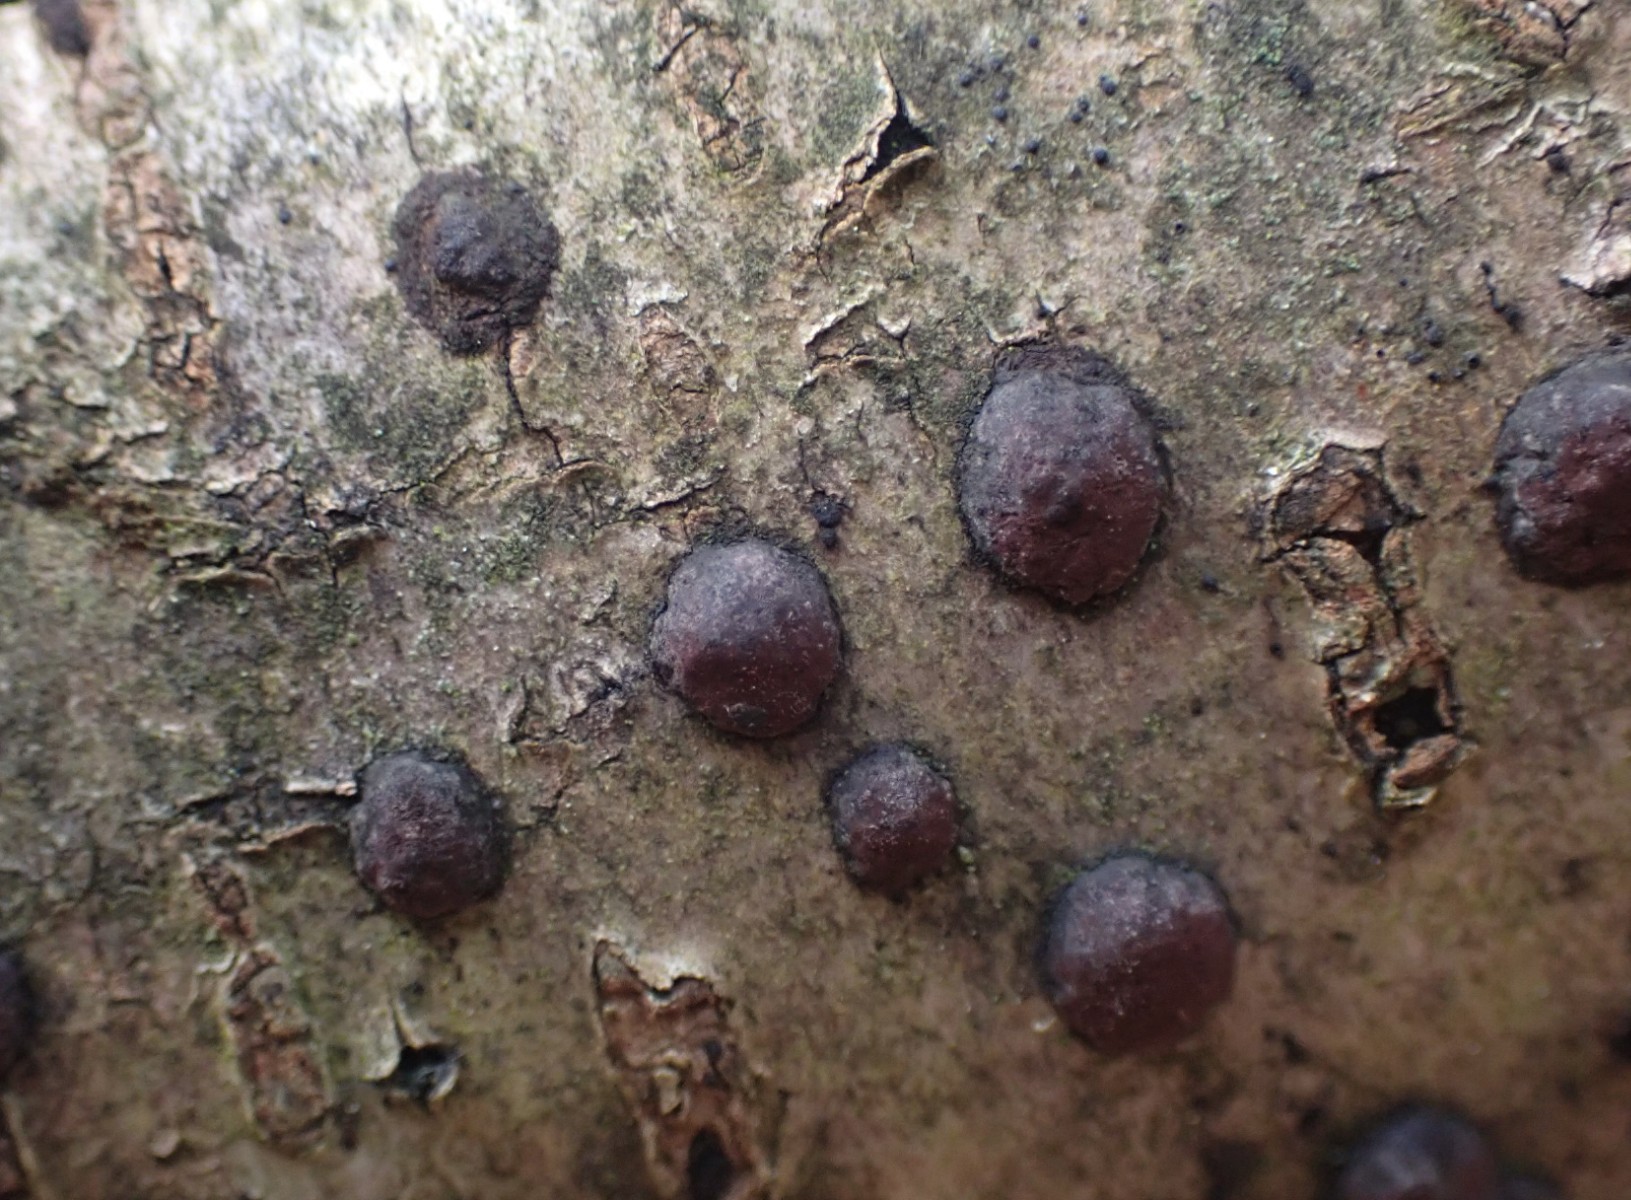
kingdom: Fungi
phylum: Ascomycota
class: Sordariomycetes
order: Xylariales
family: Hypoxylaceae
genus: Hypoxylon
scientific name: Hypoxylon fuscum
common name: kegleformet kulbær
